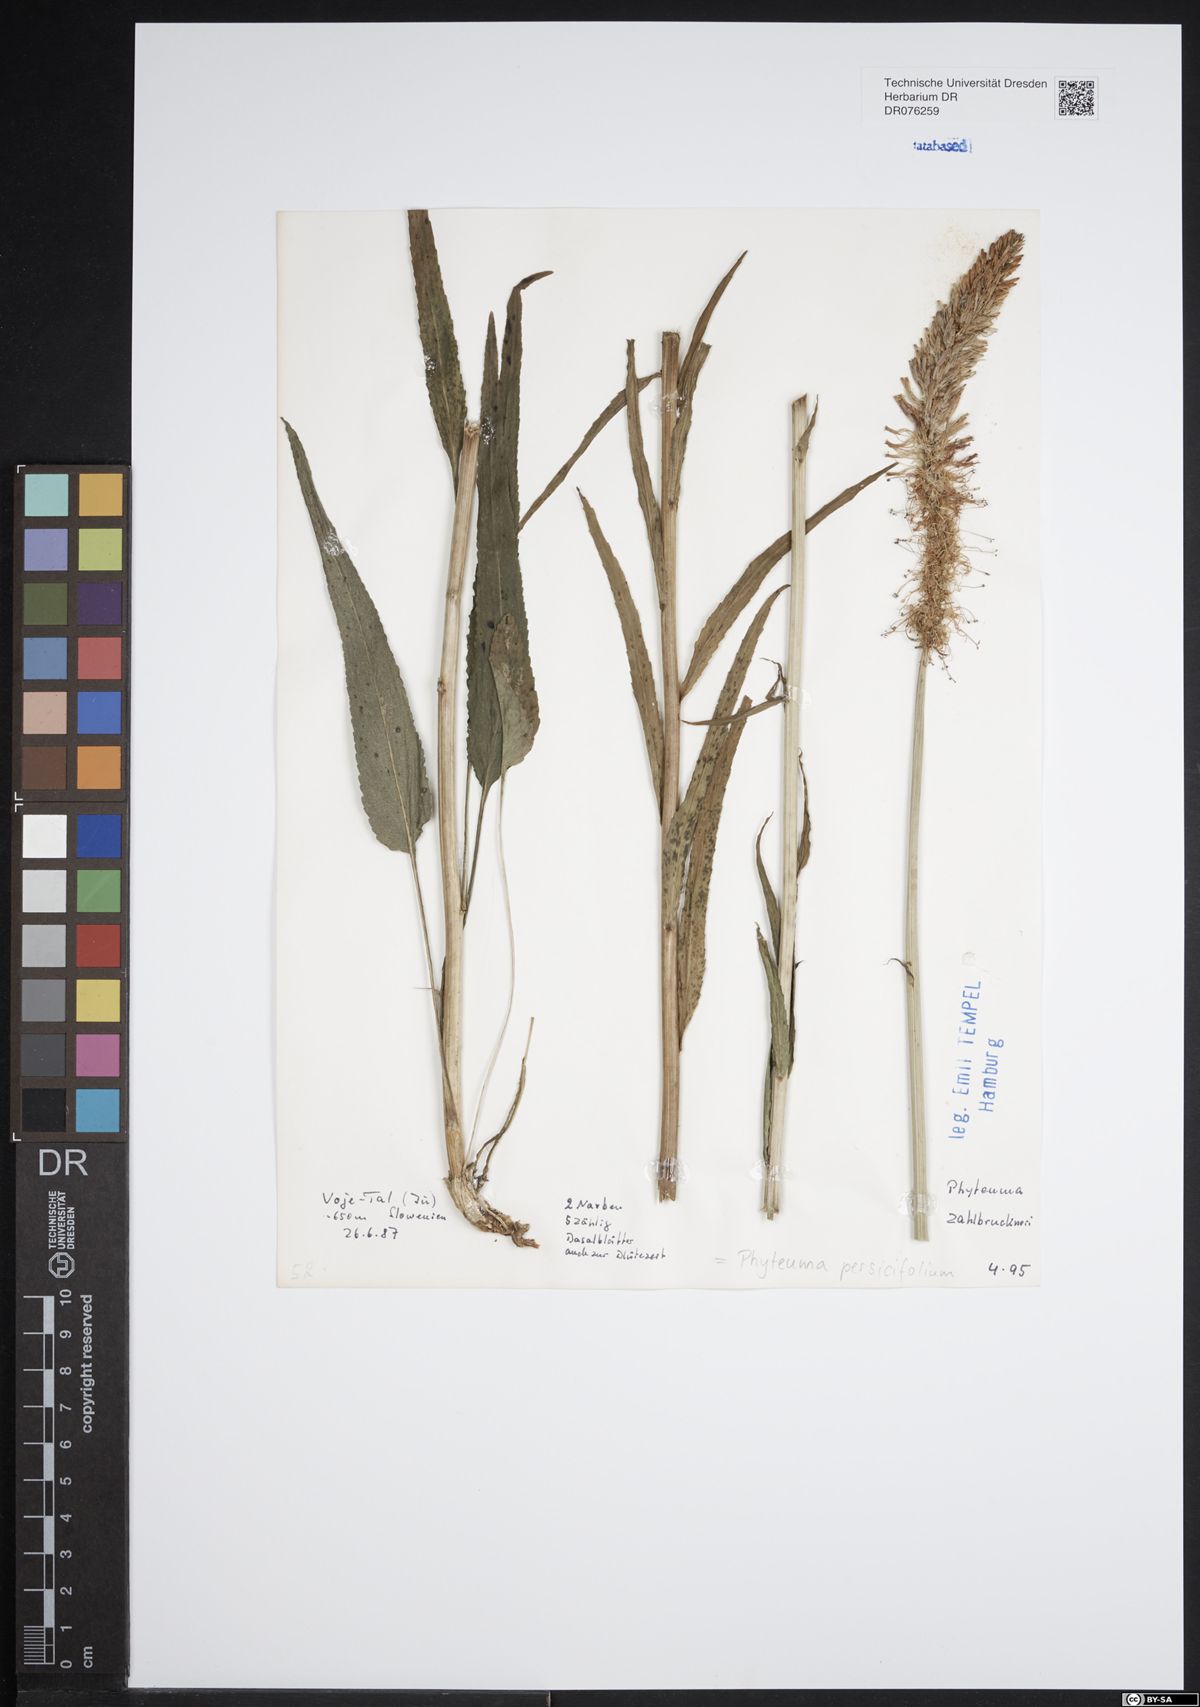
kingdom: Plantae
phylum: Tracheophyta
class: Magnoliopsida
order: Asterales
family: Campanulaceae
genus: Phyteuma
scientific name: Phyteuma persicifolium
